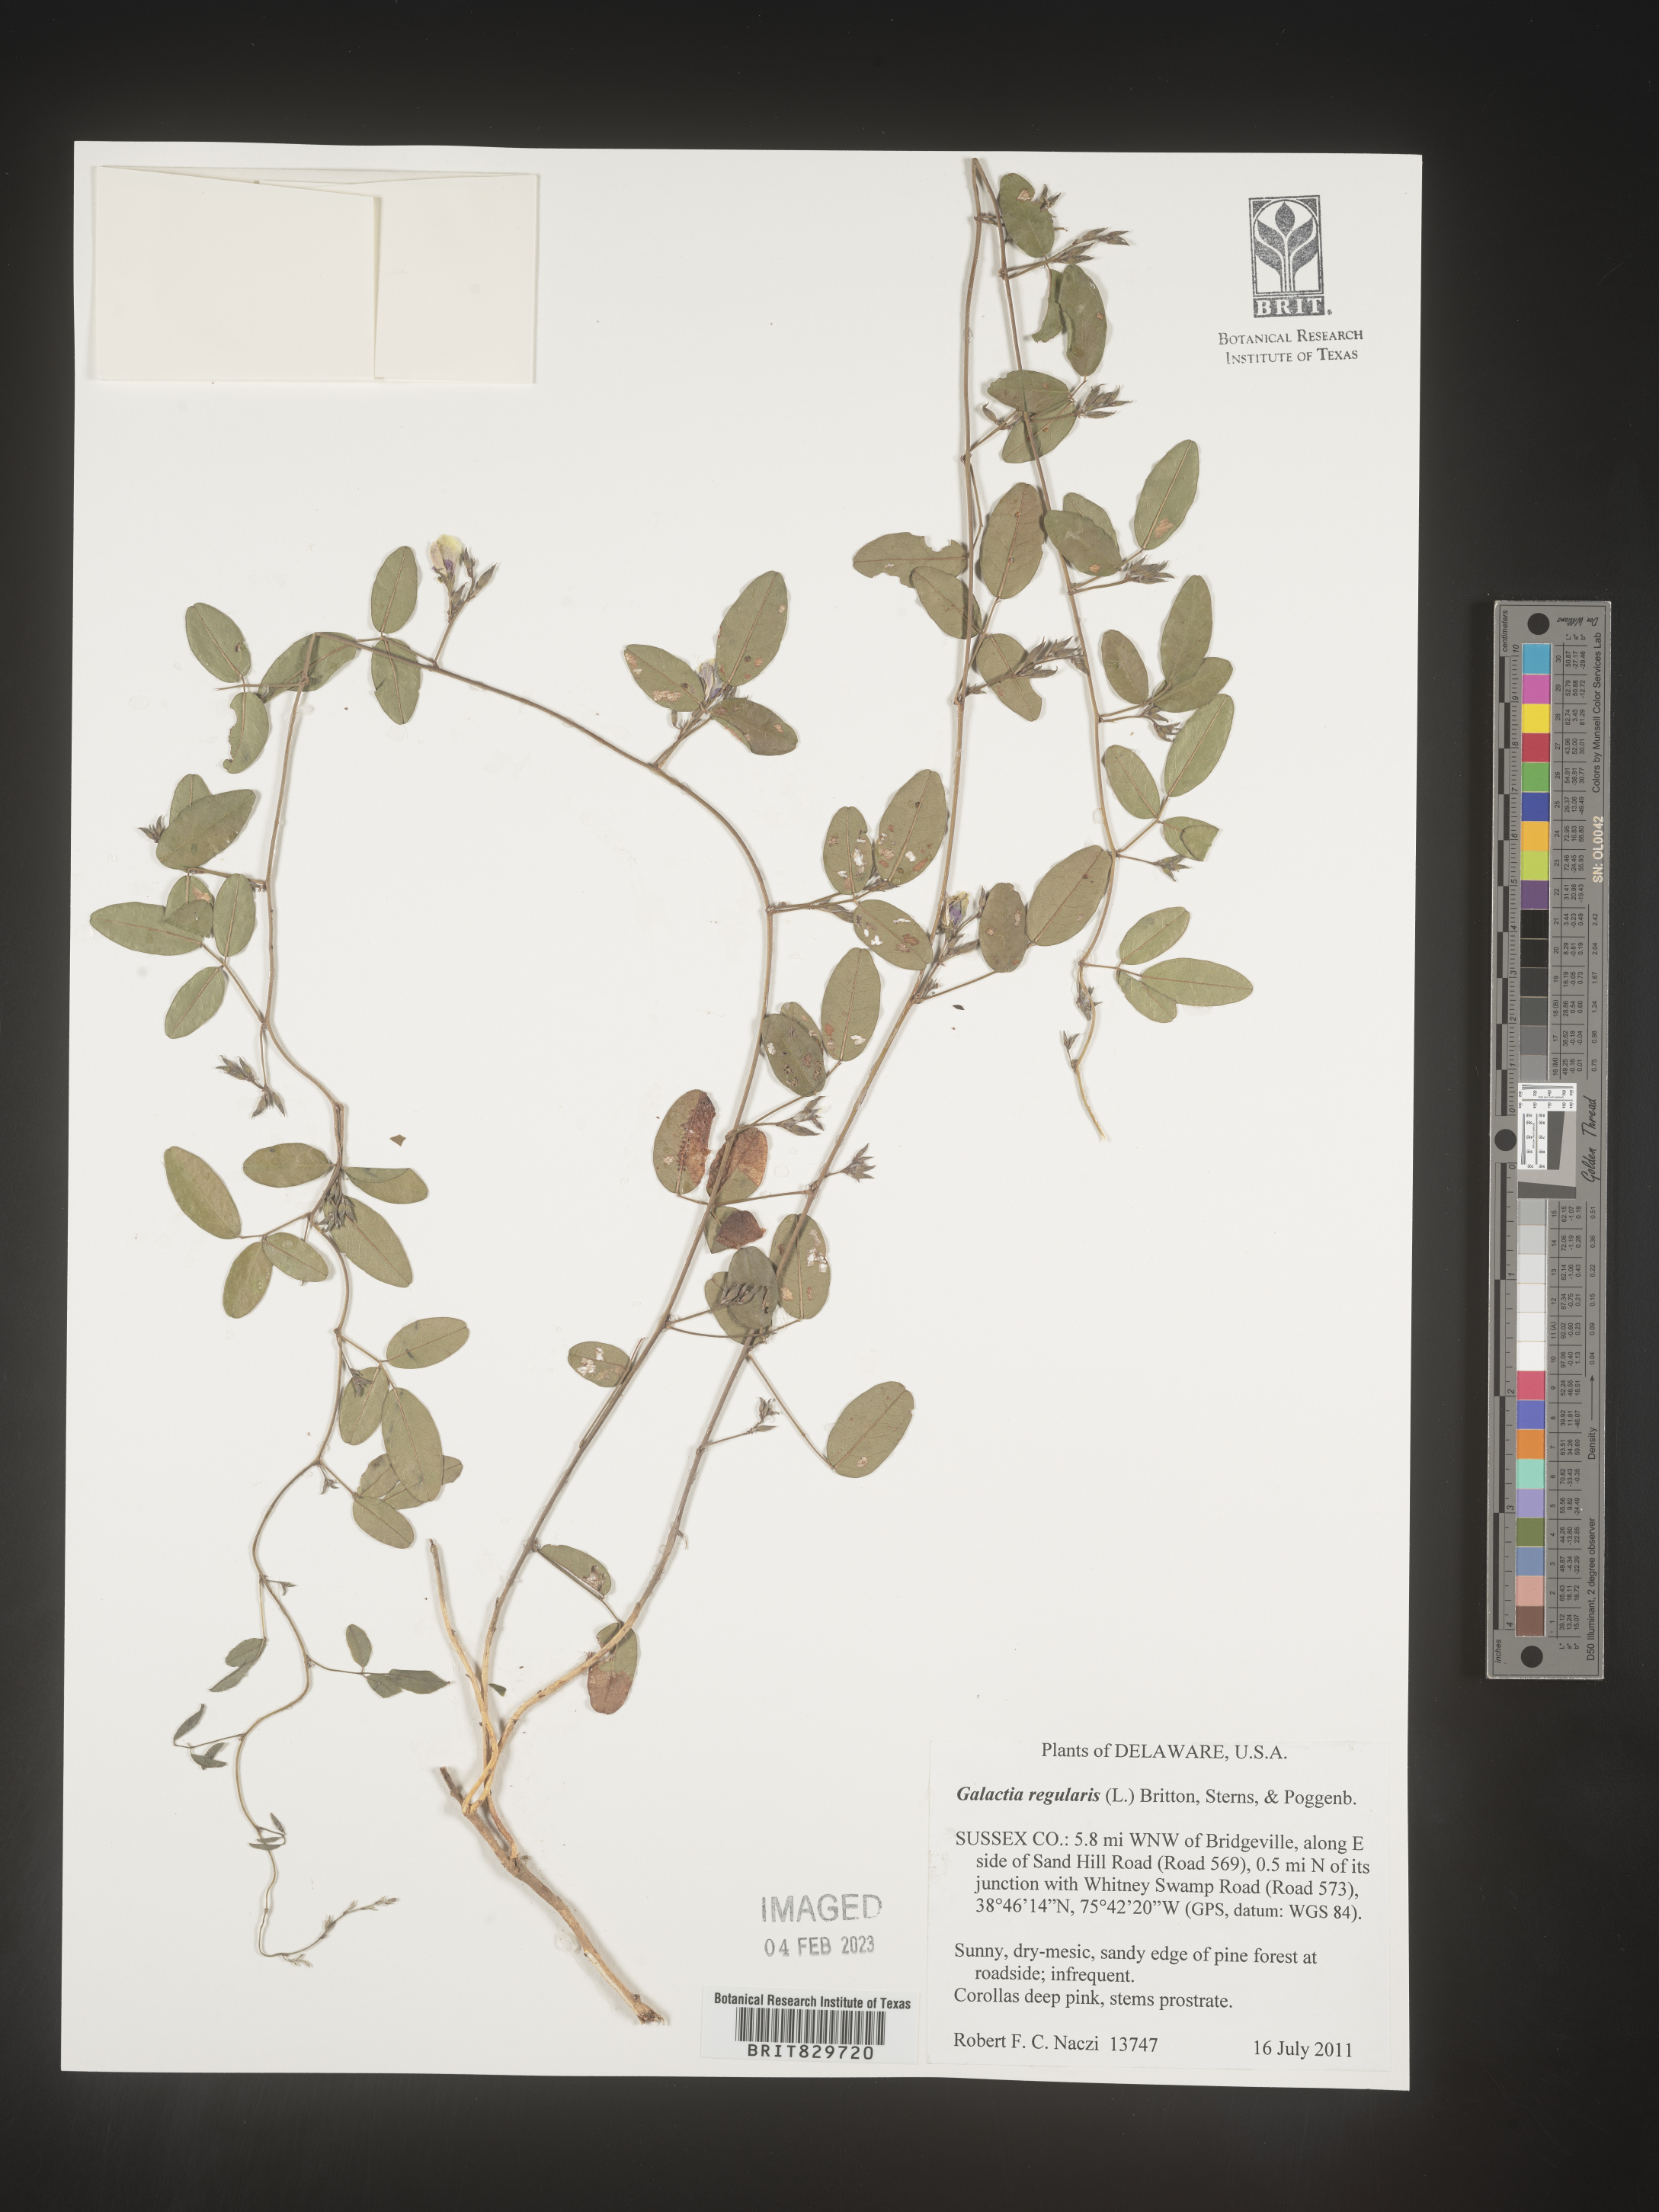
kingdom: Plantae
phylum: Tracheophyta
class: Magnoliopsida
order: Fabales
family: Fabaceae
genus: Galactia
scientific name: Galactia regularis
